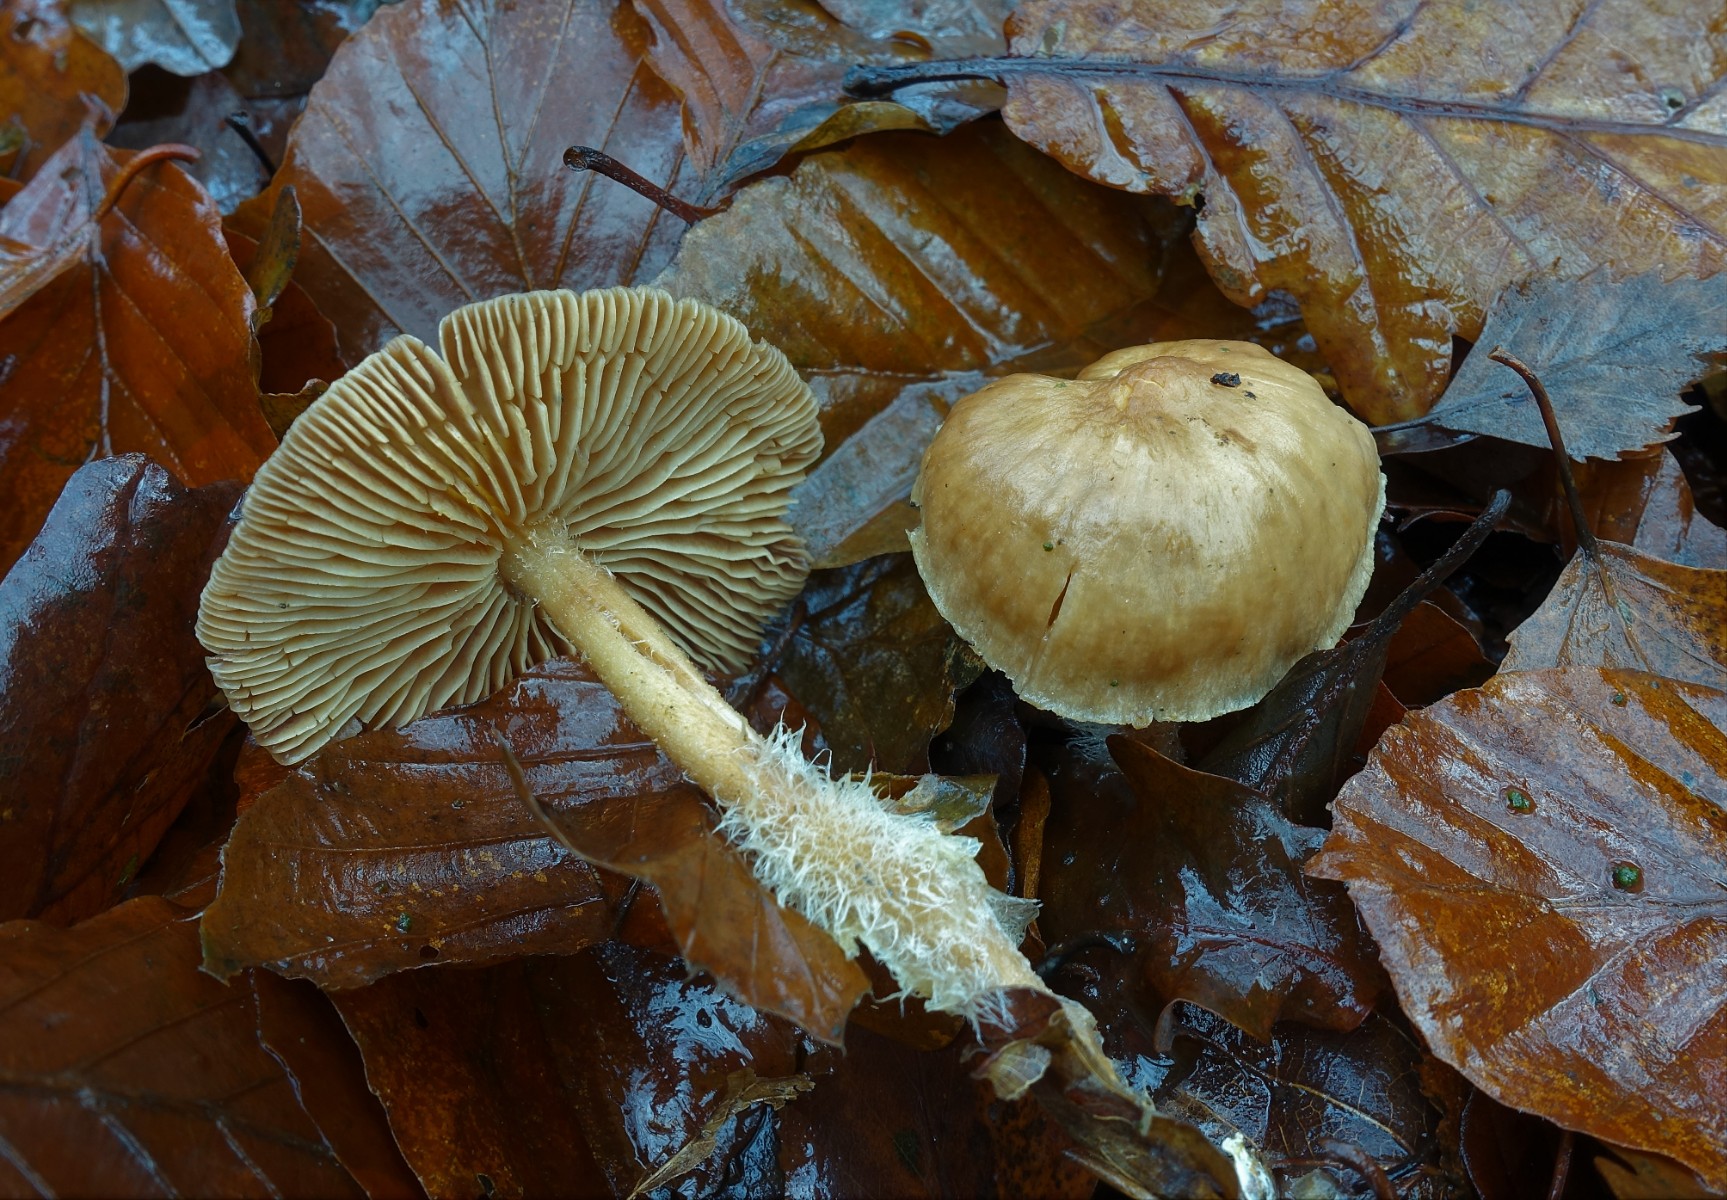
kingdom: Fungi
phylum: Basidiomycota
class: Agaricomycetes
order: Agaricales
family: Omphalotaceae
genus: Collybiopsis
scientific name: Collybiopsis peronata
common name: bestøvlet fladhat
